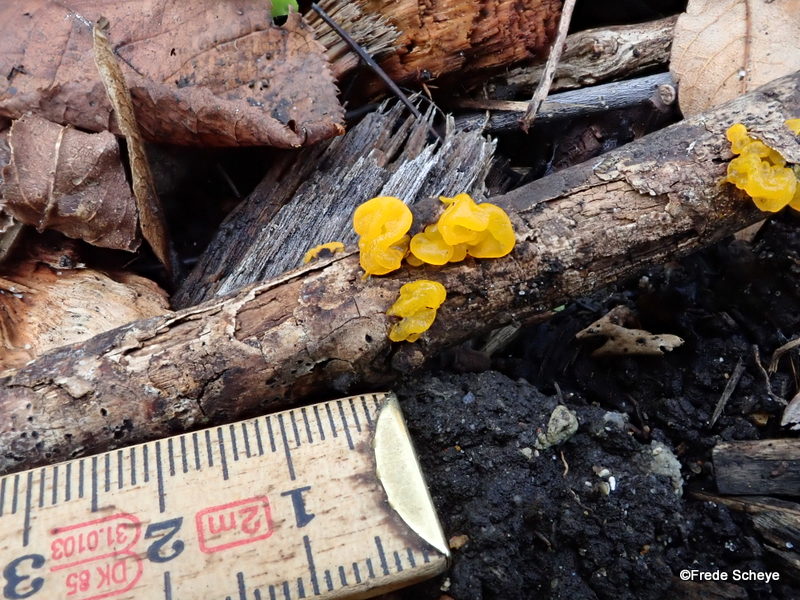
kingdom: Fungi
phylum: Basidiomycota
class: Tremellomycetes
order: Tremellales
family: Tremellaceae
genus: Tremella
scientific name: Tremella mesenterica
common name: gul bævresvamp
